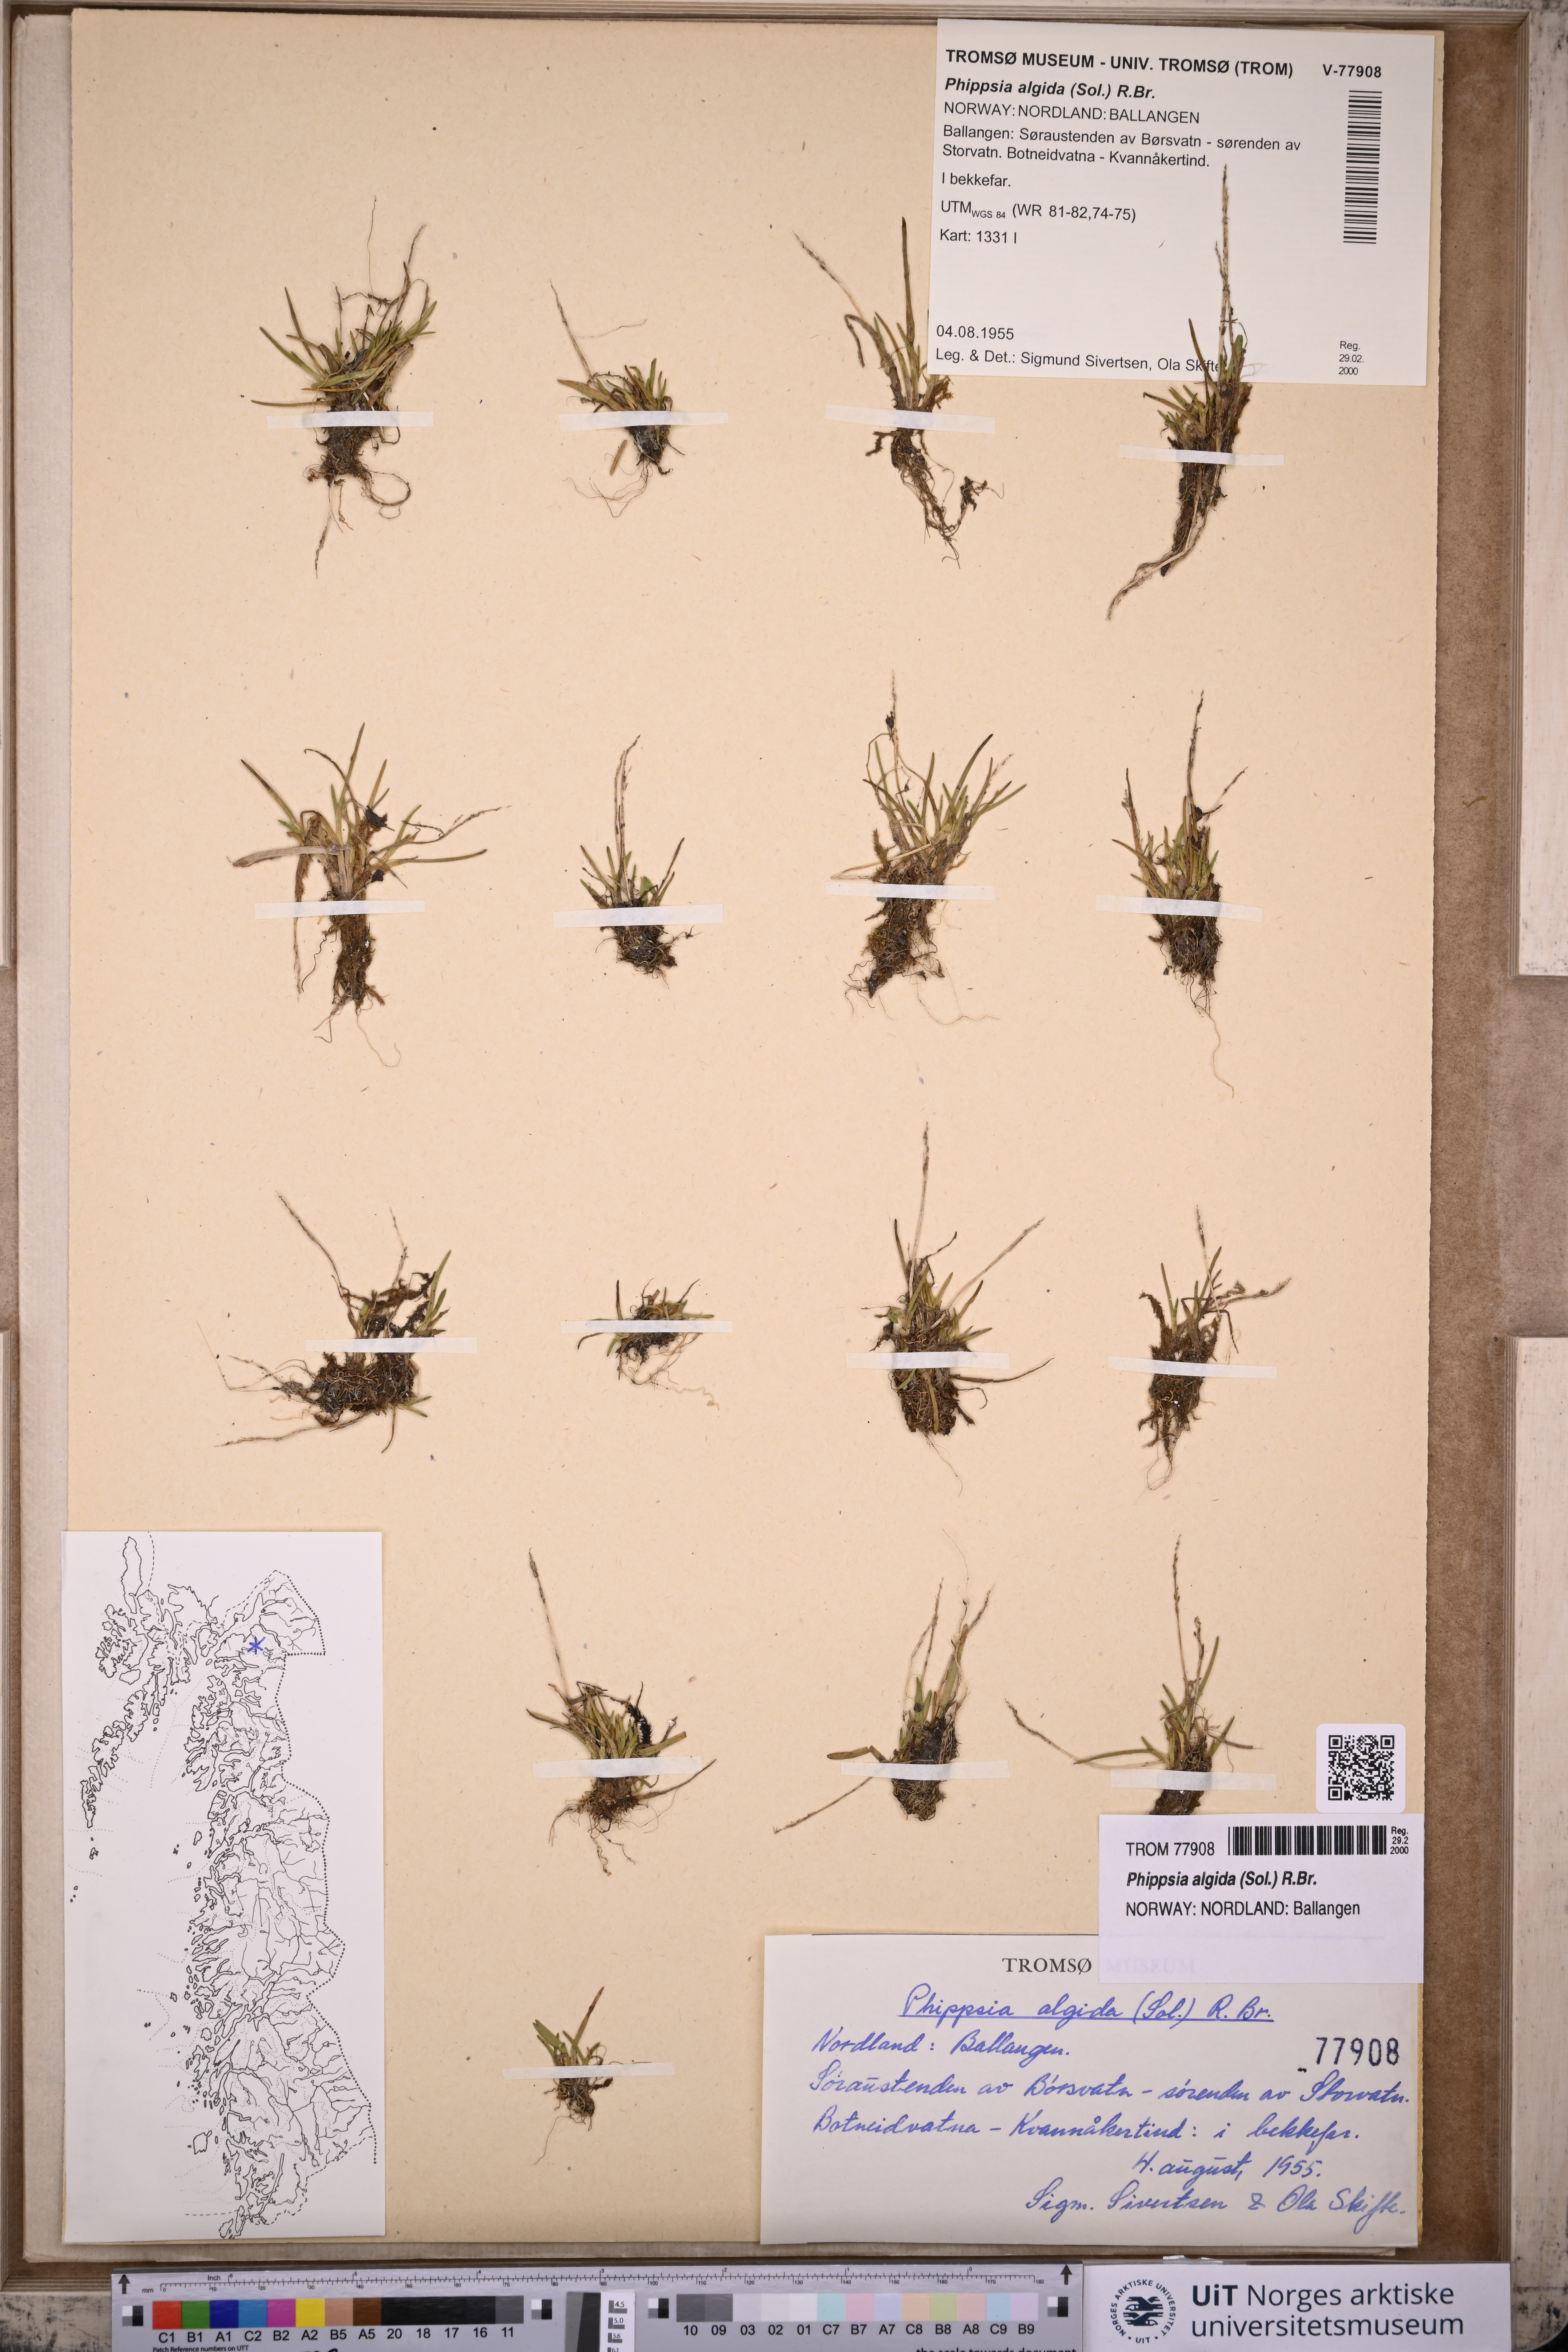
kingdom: Plantae
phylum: Tracheophyta
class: Liliopsida
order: Poales
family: Poaceae
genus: Phippsia
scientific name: Phippsia algida
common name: Ice grass
